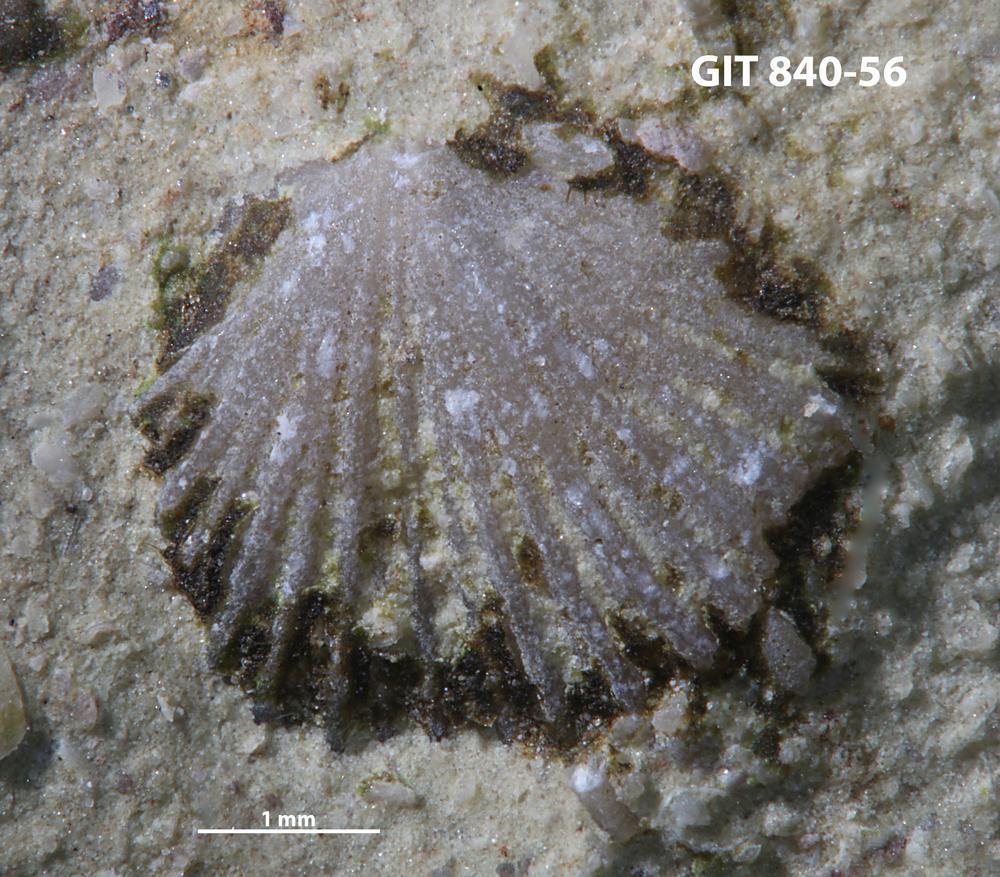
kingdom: Animalia
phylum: Brachiopoda
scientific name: Brachiopoda
